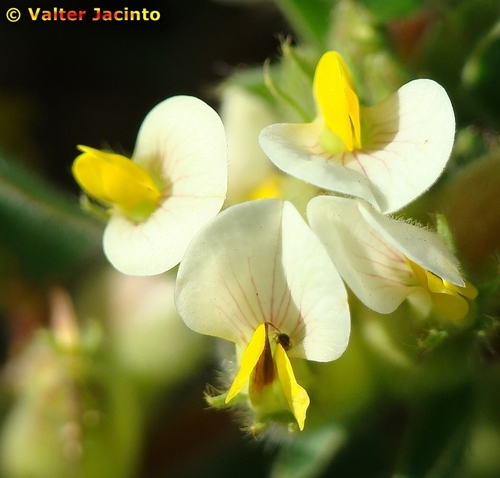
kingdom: Plantae
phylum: Tracheophyta
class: Magnoliopsida
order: Fabales
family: Fabaceae
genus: Tripodion
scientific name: Tripodion tetraphyllum
